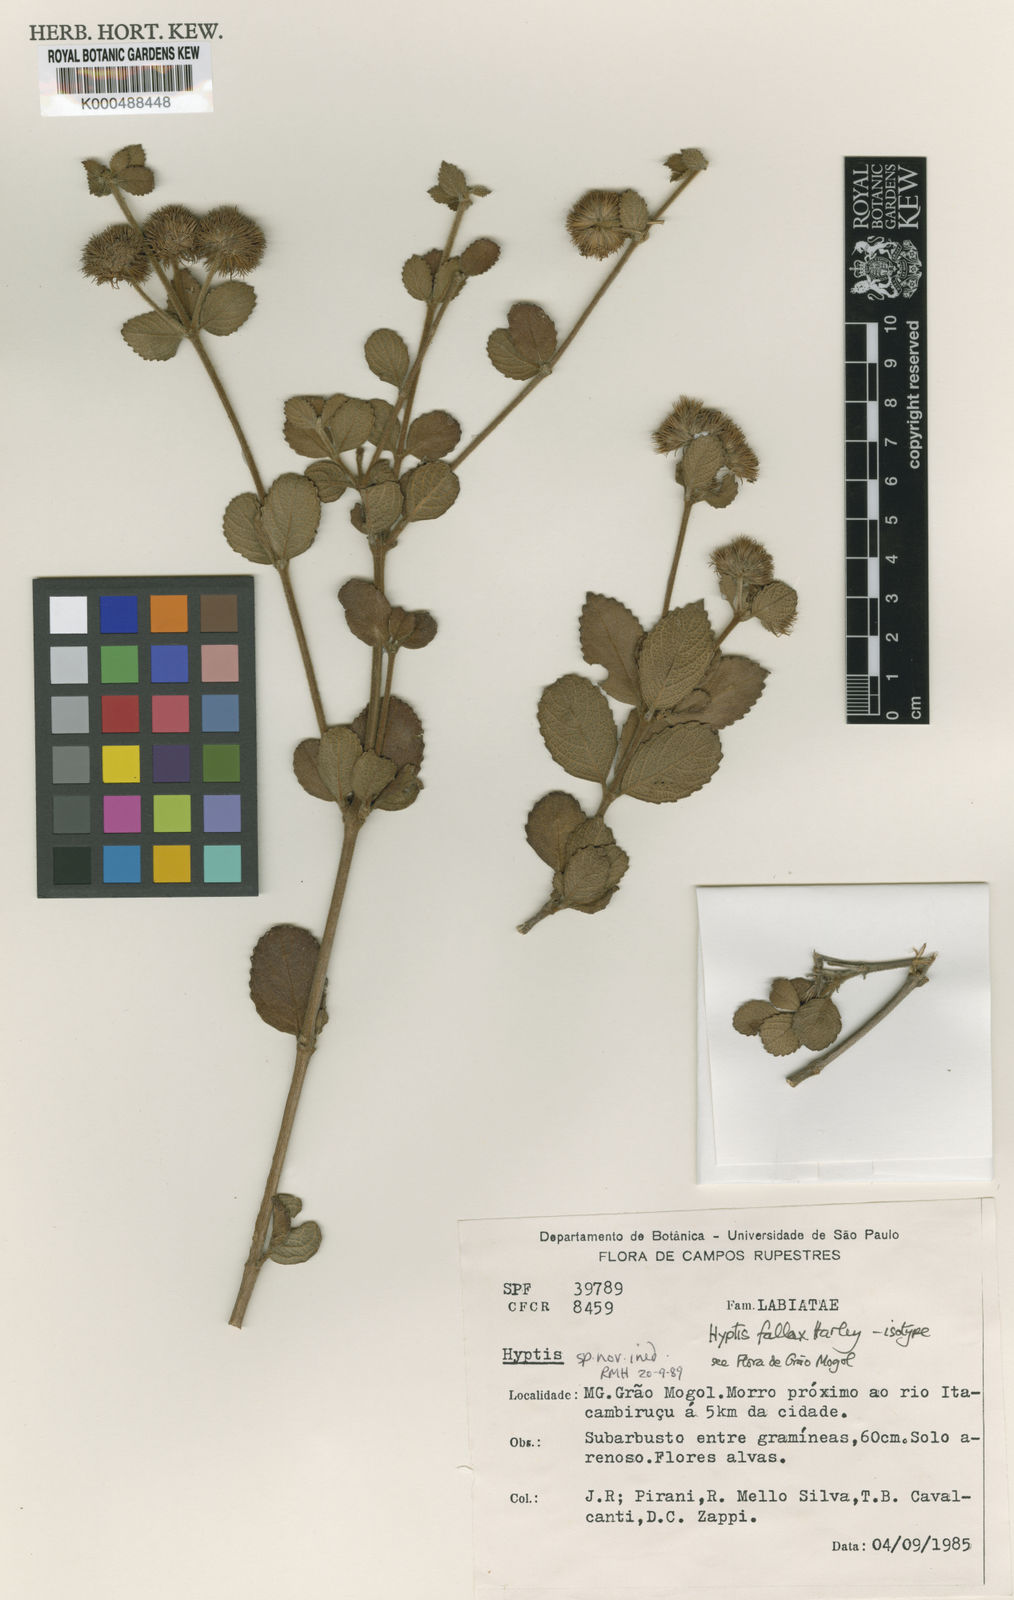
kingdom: Plantae
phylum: Tracheophyta
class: Magnoliopsida
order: Lamiales
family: Lamiaceae
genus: Hyptis
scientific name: Hyptis fallax
